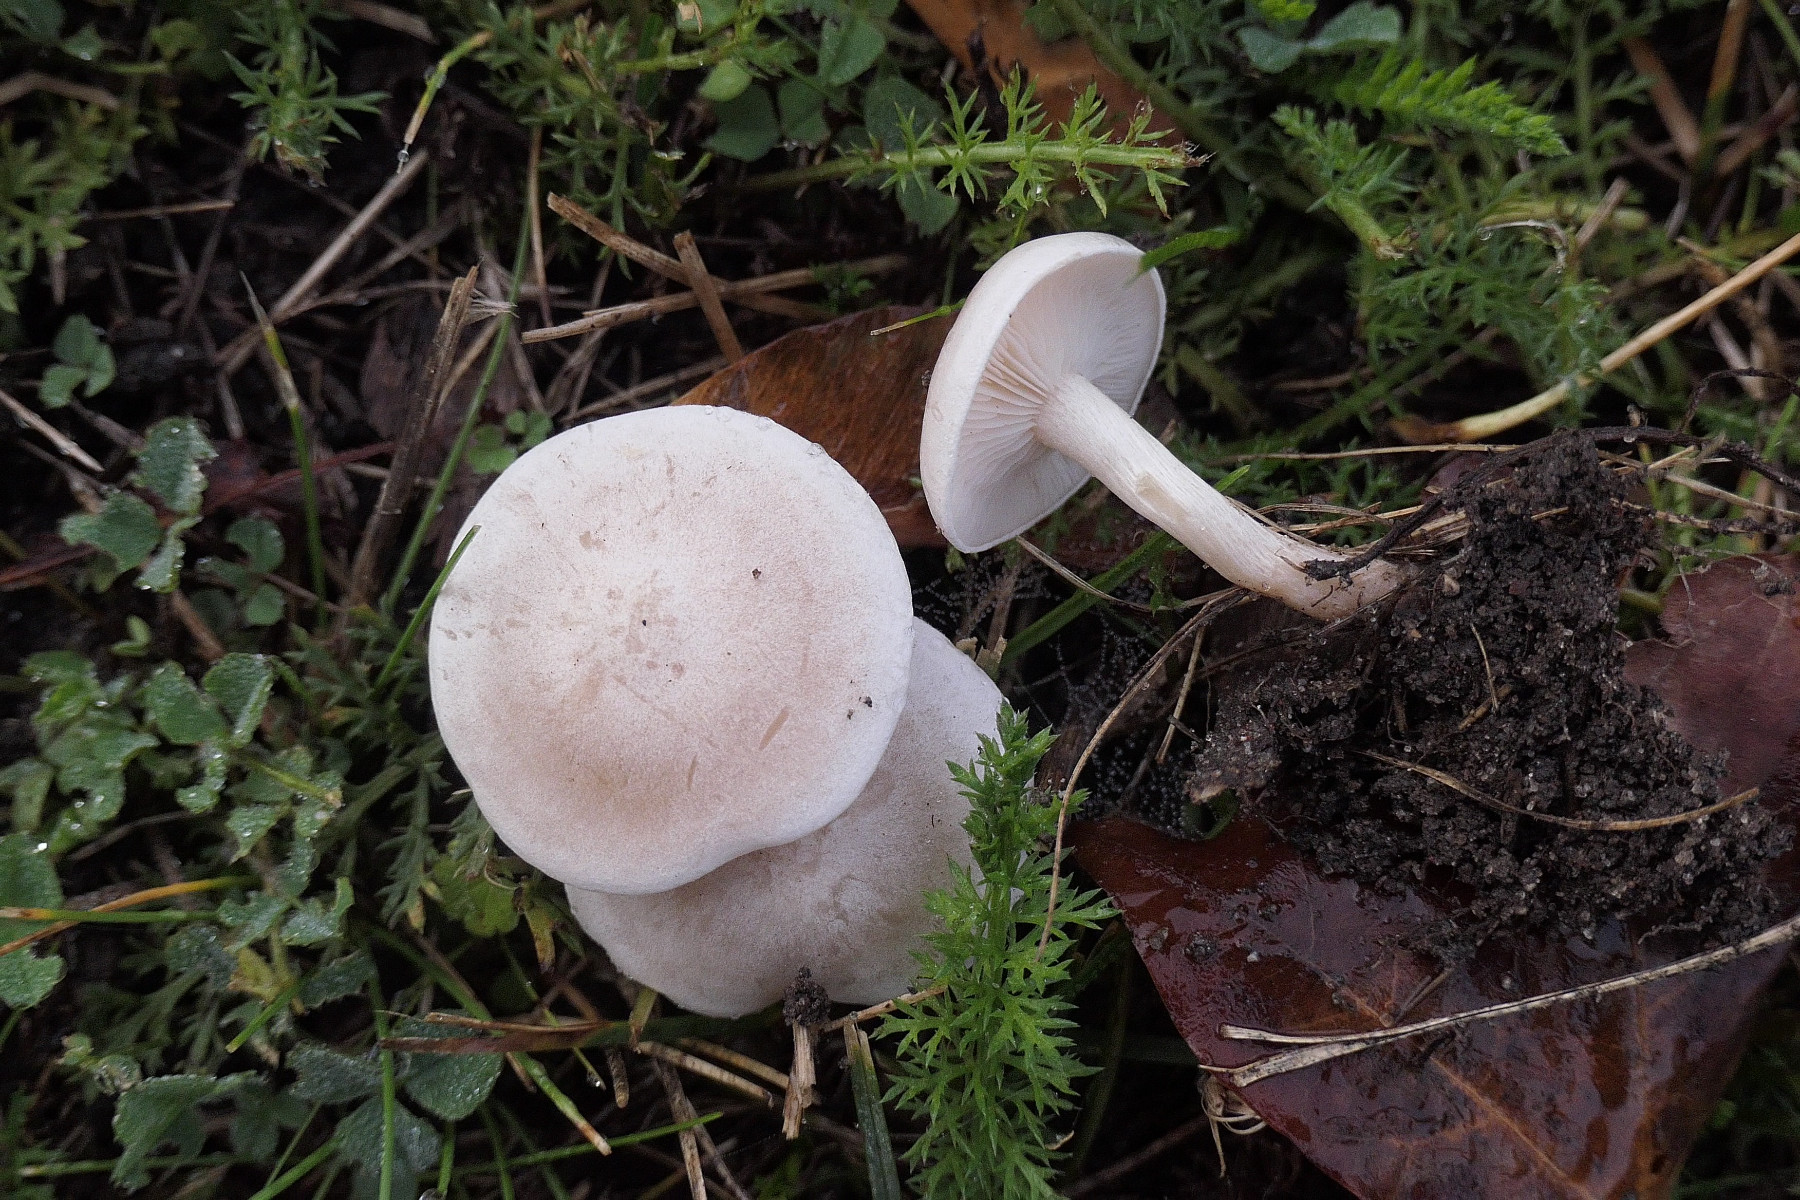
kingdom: Fungi
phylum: Basidiomycota
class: Agaricomycetes
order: Agaricales
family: Tricholomataceae
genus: Clitocybe
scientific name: Clitocybe rivulosa
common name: eng-tragthat
